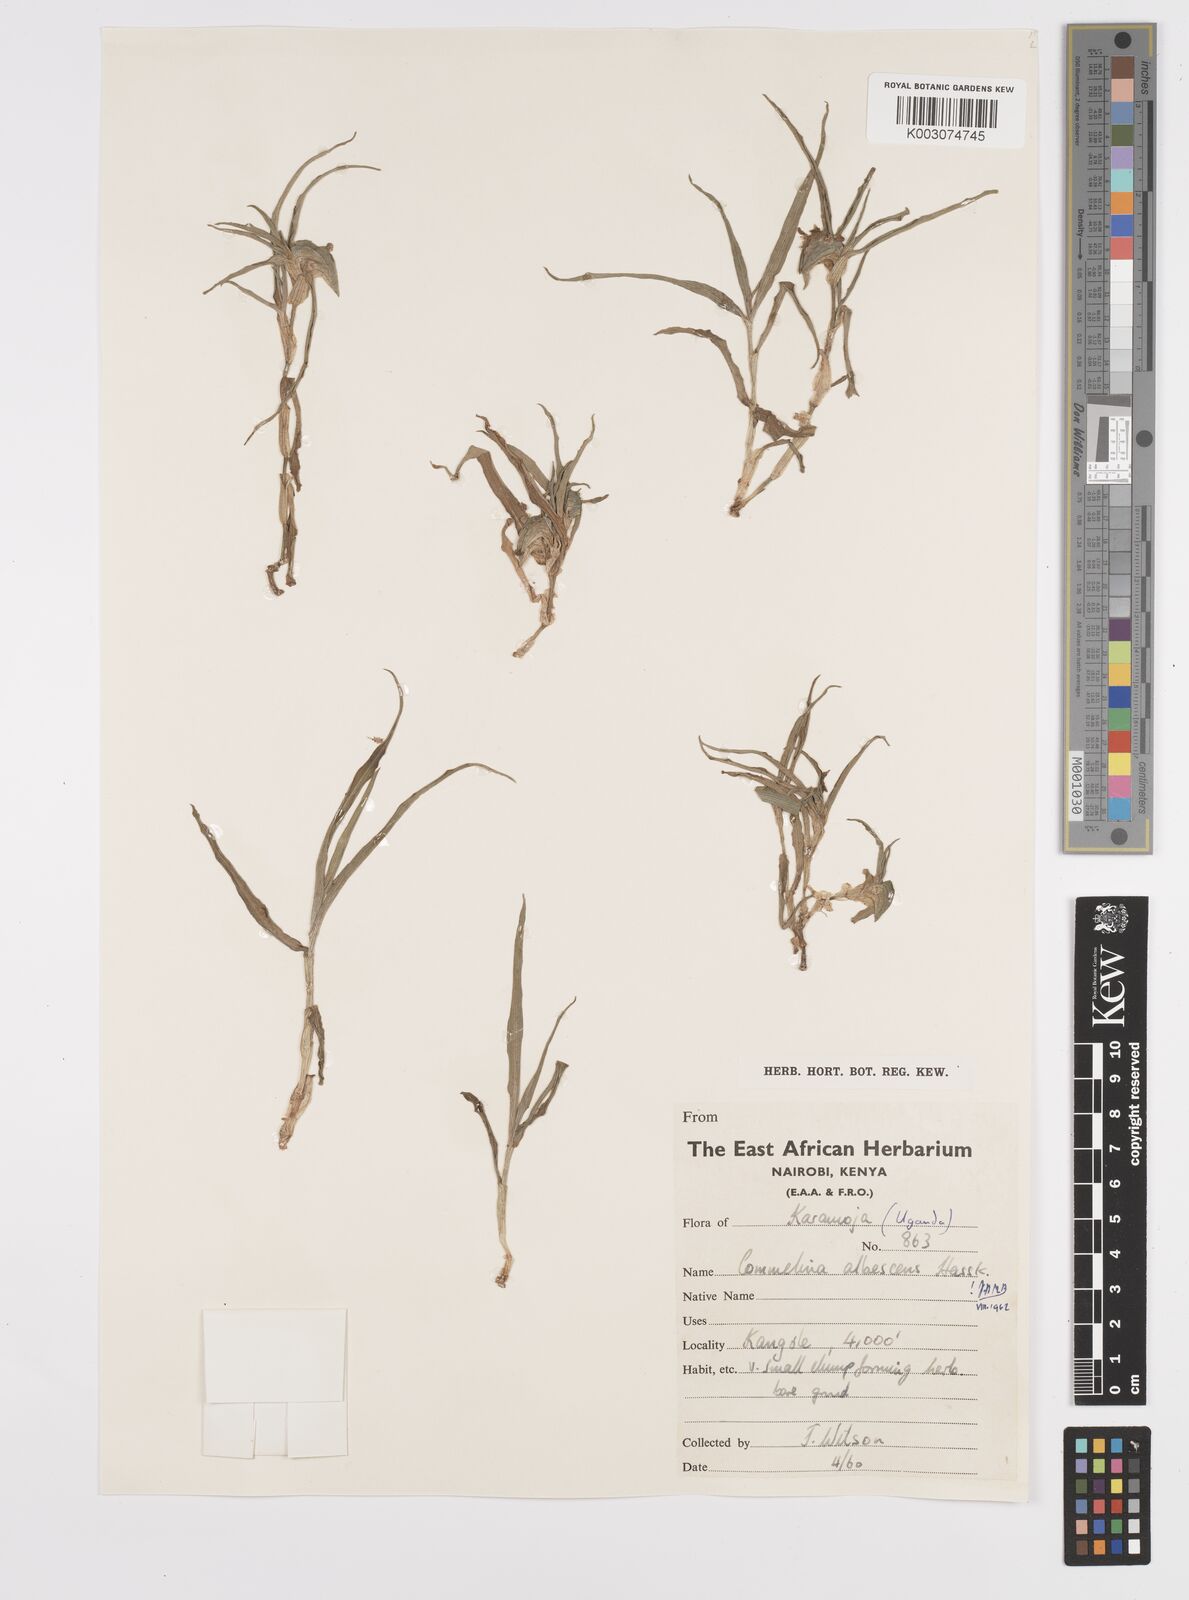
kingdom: Plantae
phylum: Tracheophyta
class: Liliopsida
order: Commelinales
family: Commelinaceae
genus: Commelina
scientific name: Commelina albescens
